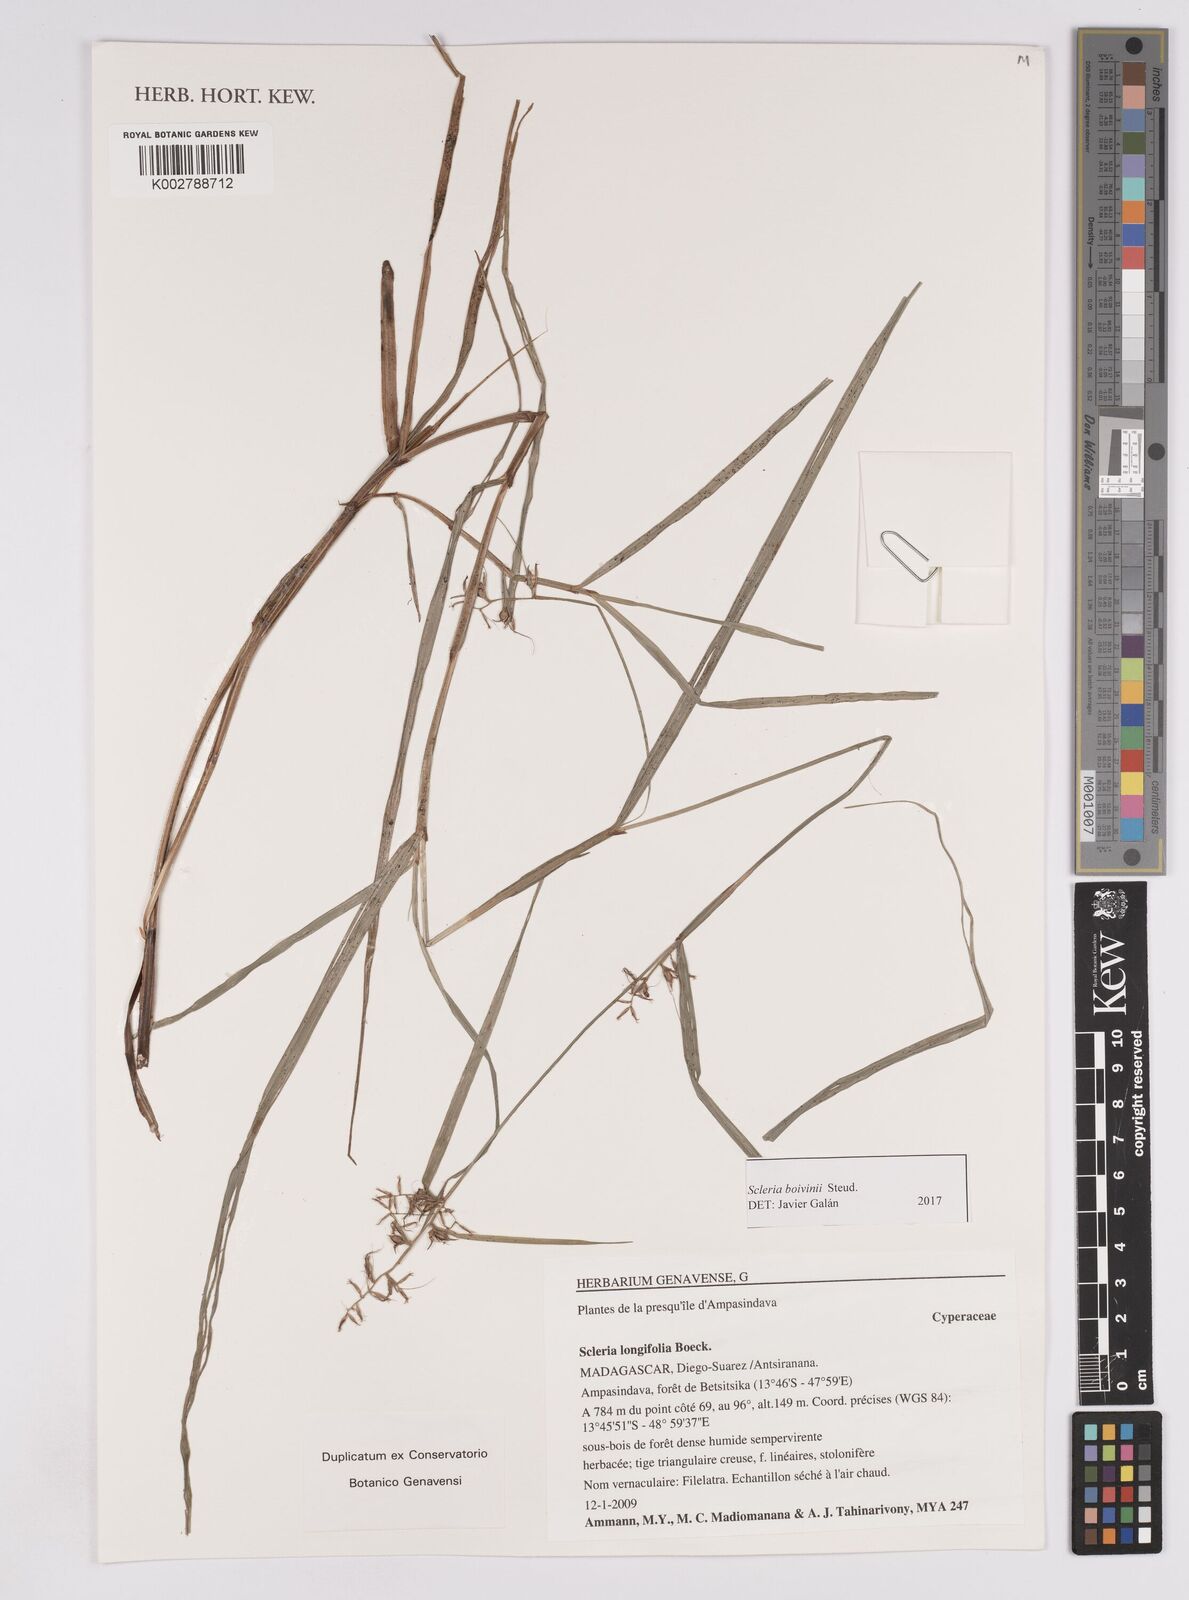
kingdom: Plantae
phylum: Tracheophyta
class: Liliopsida
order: Poales
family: Cyperaceae
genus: Scleria
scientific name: Scleria boivinii
